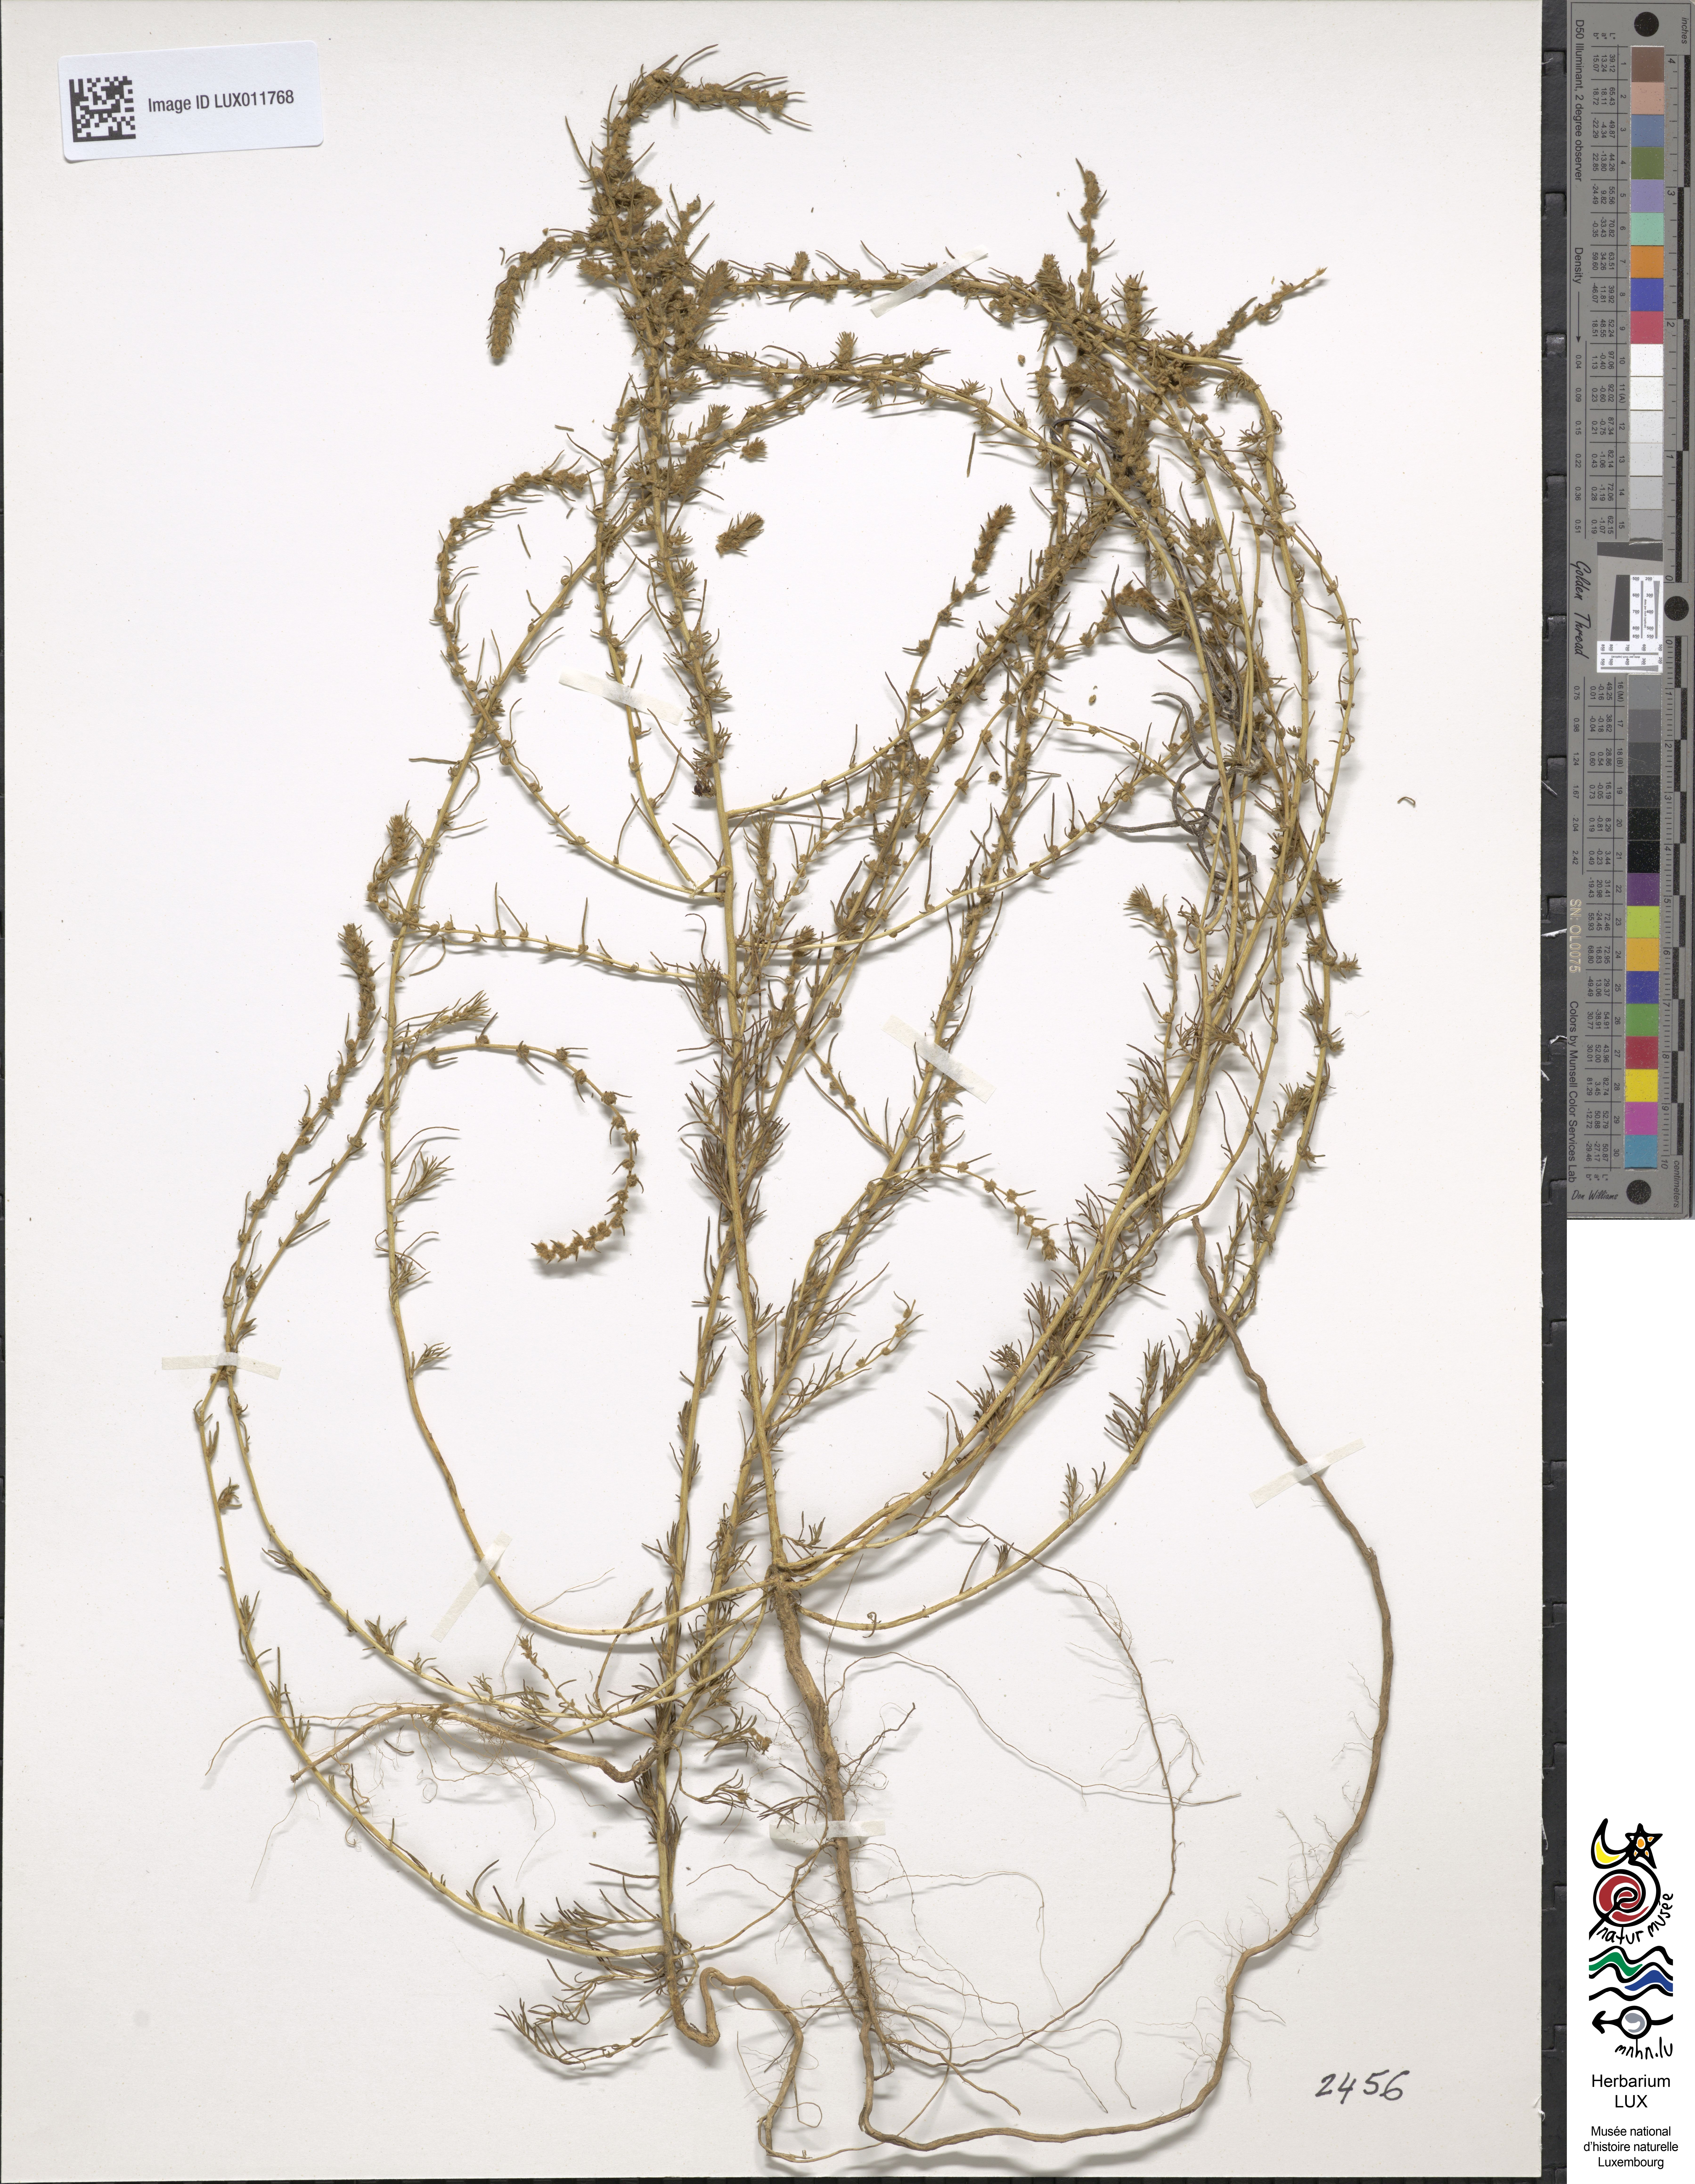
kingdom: Plantae
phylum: Tracheophyta
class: Magnoliopsida
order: Caryophyllales
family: Amaranthaceae
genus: Bassia
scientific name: Bassia laniflora
